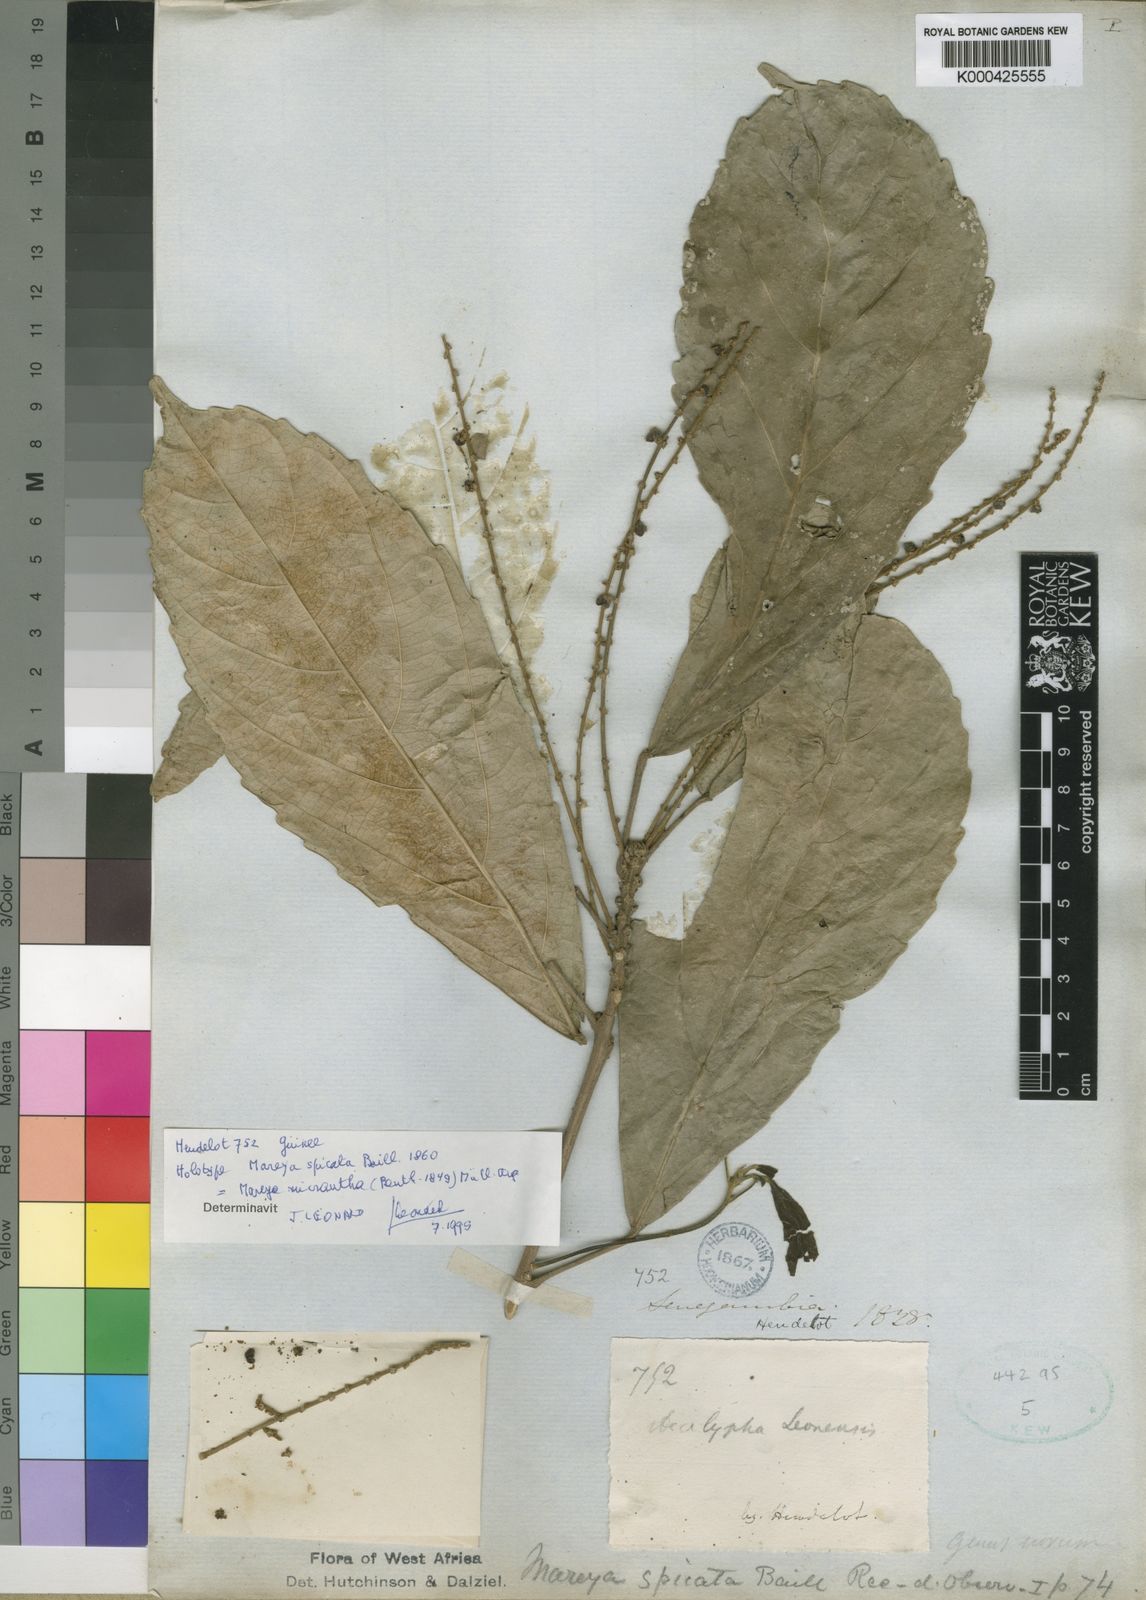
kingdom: Plantae
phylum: Tracheophyta
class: Magnoliopsida
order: Malpighiales
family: Euphorbiaceae
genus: Mareya
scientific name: Mareya
